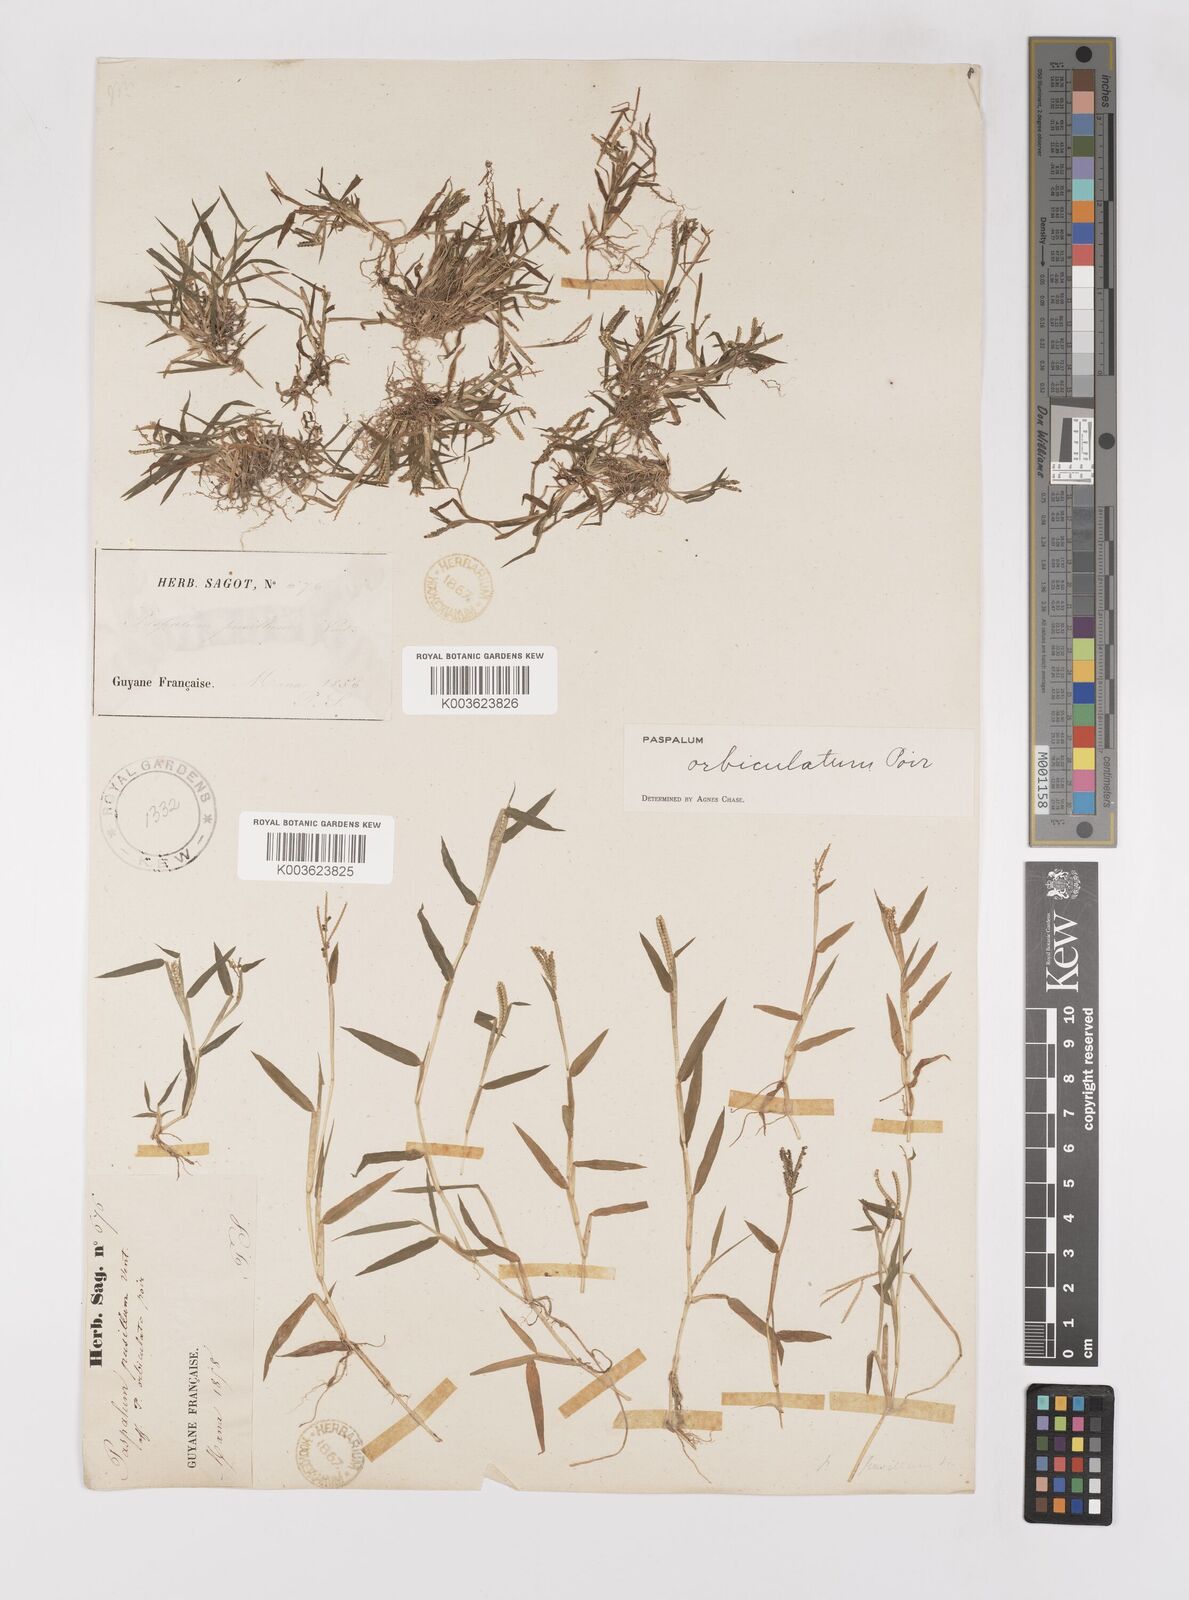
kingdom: Plantae
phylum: Tracheophyta
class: Liliopsida
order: Poales
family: Poaceae
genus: Paspalum
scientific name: Paspalum orbiculatum
